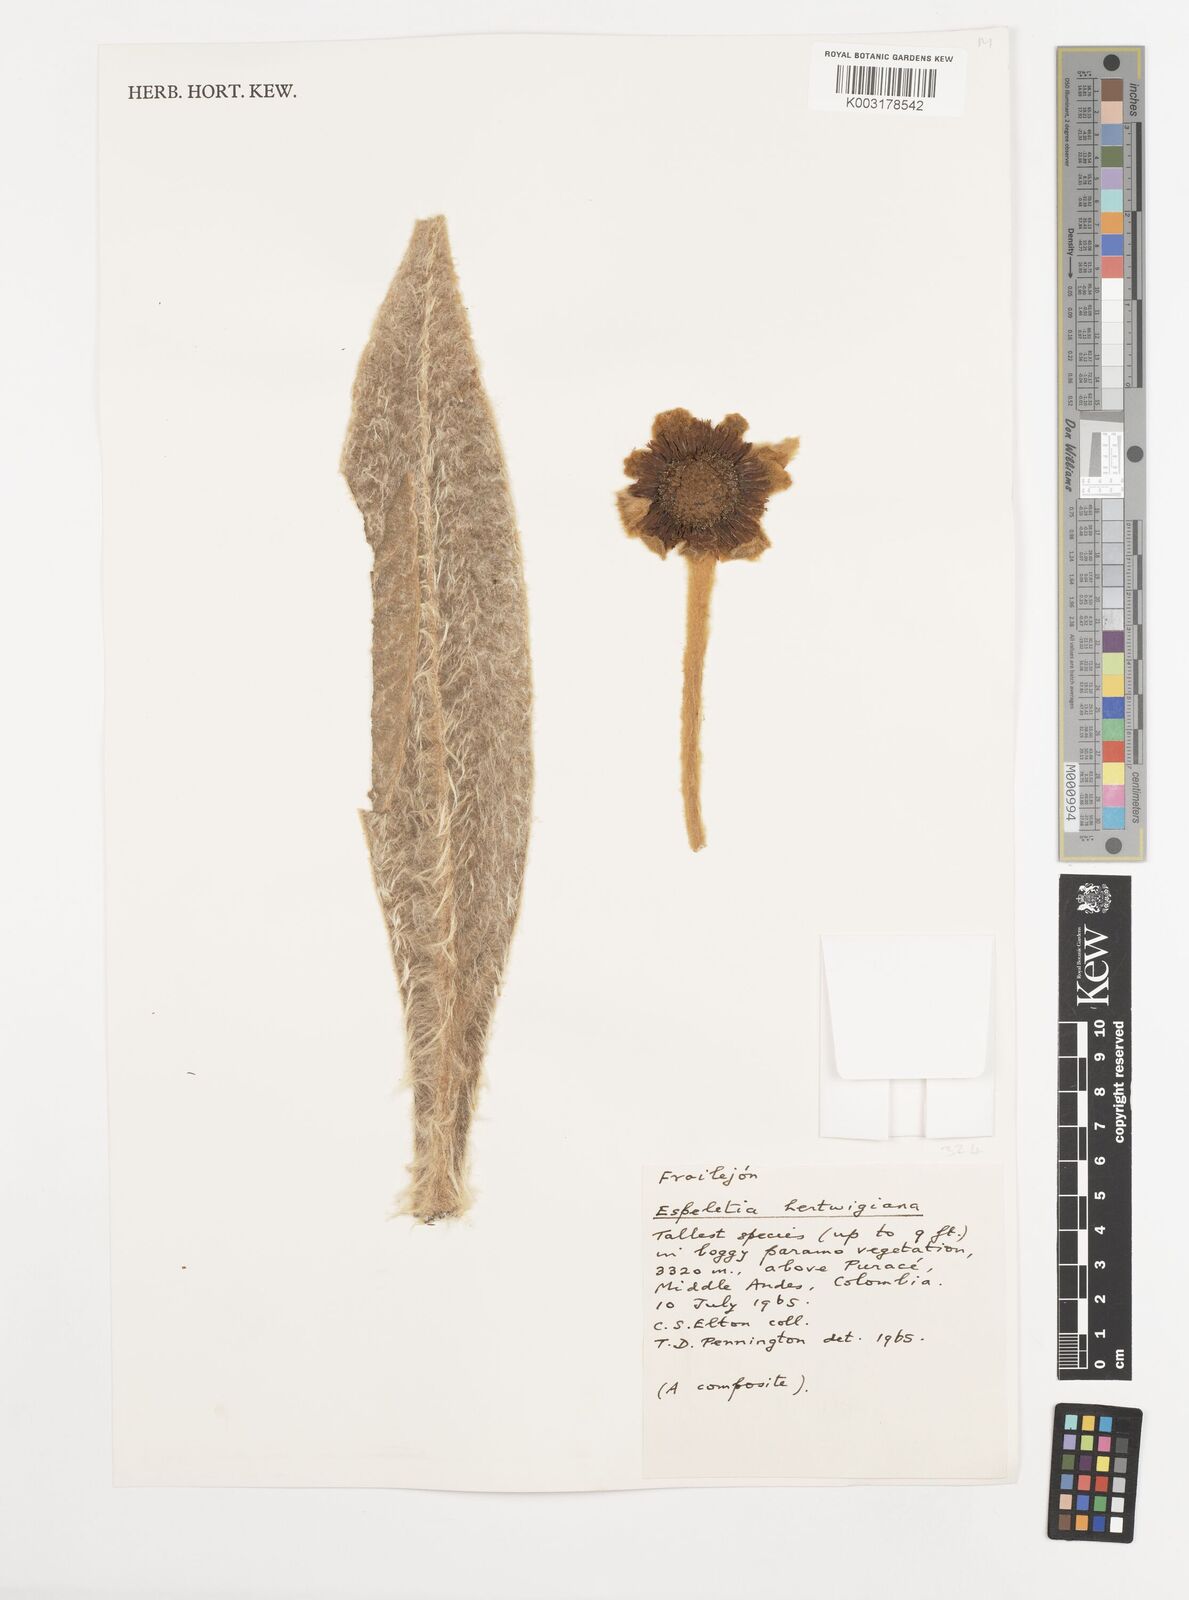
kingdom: Plantae
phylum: Tracheophyta
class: Magnoliopsida
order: Asterales
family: Asteraceae
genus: Espeletia
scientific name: Espeletia hartwegiana
